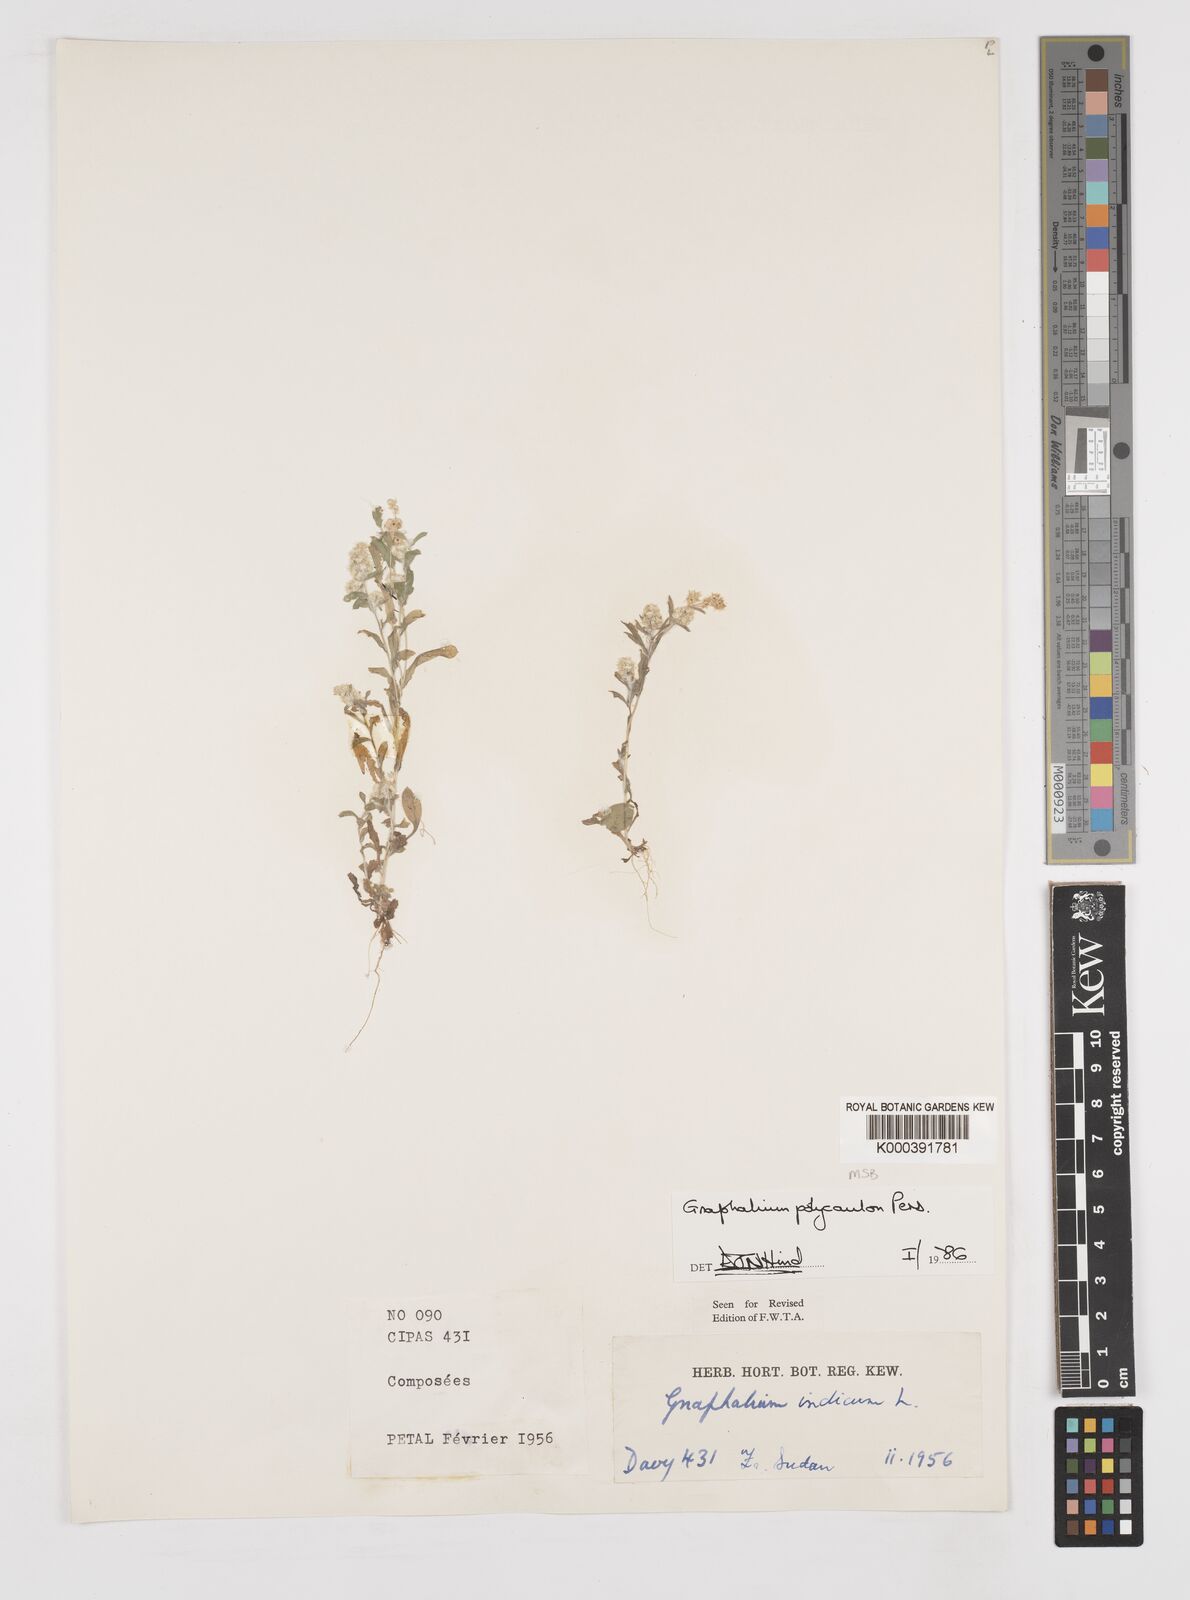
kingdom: Plantae
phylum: Tracheophyta
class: Magnoliopsida
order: Asterales
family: Asteraceae
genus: Gnaphalium
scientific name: Gnaphalium polycaulon
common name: Western cudweed
